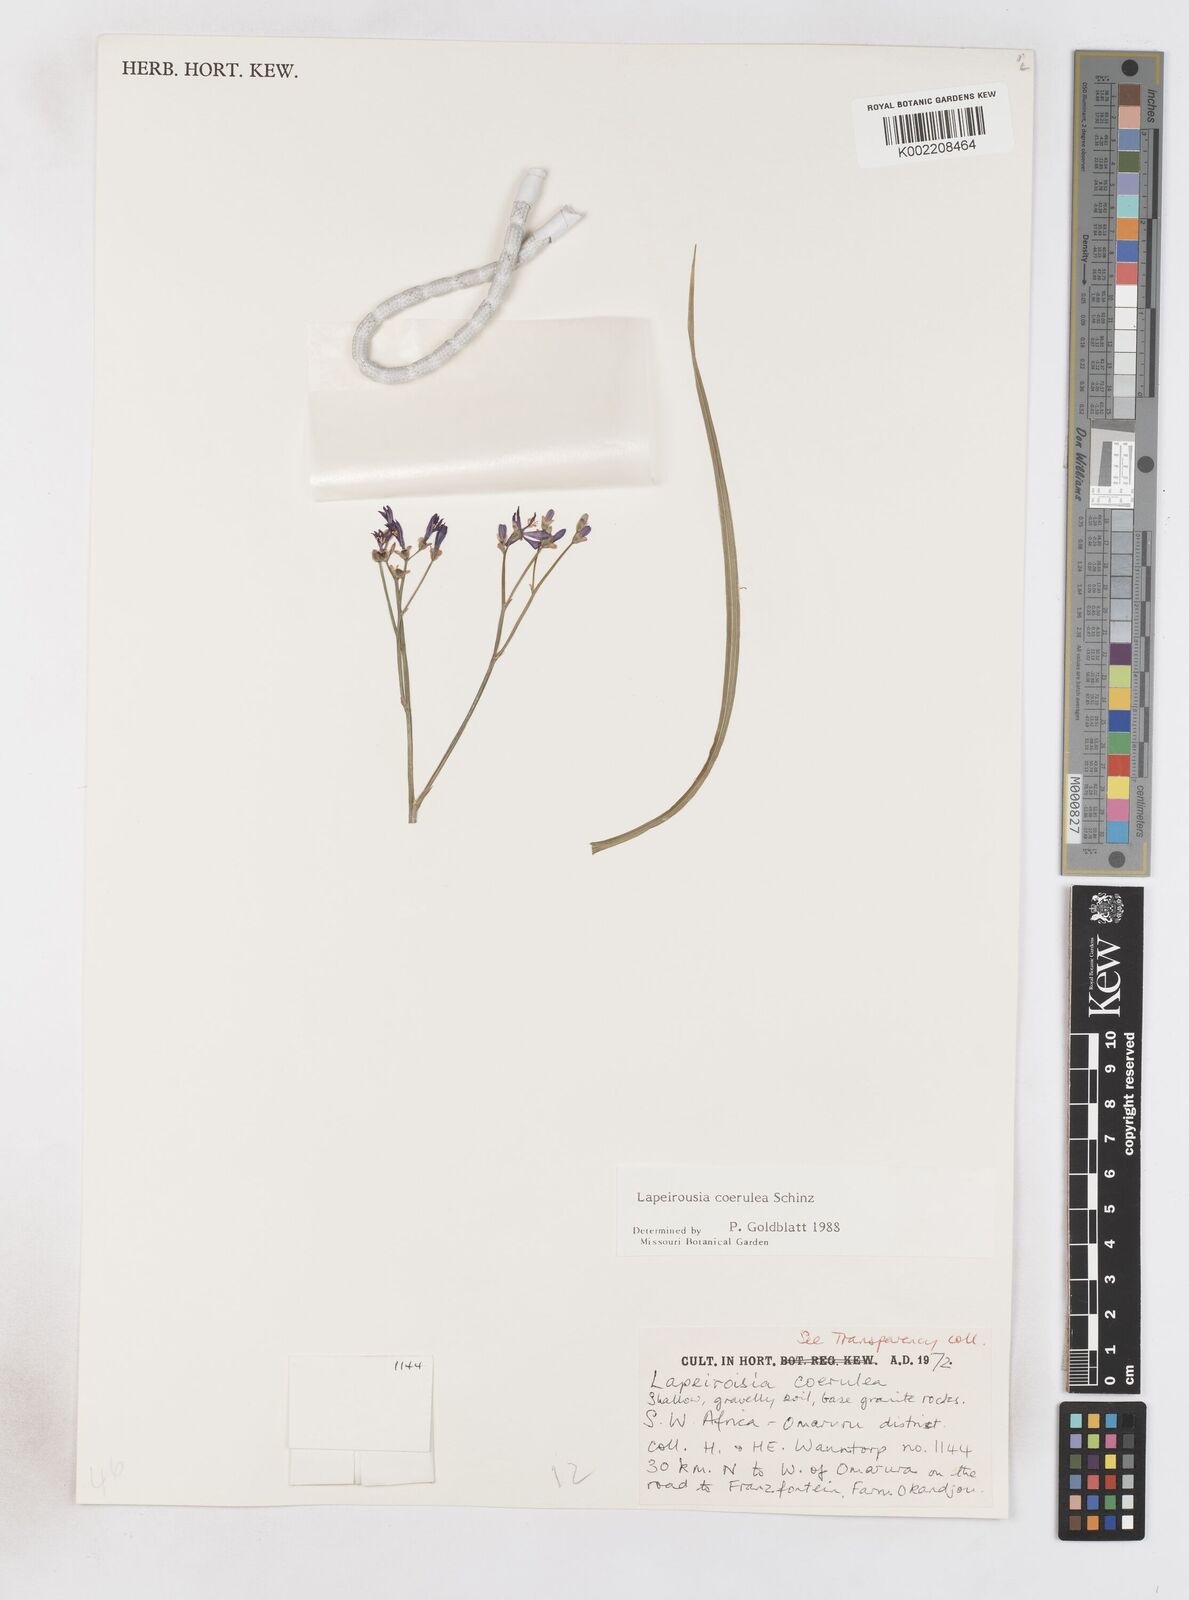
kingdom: Plantae
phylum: Tracheophyta
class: Liliopsida
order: Asparagales
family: Iridaceae
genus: Afrosolen
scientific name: Afrosolen coeruleus
